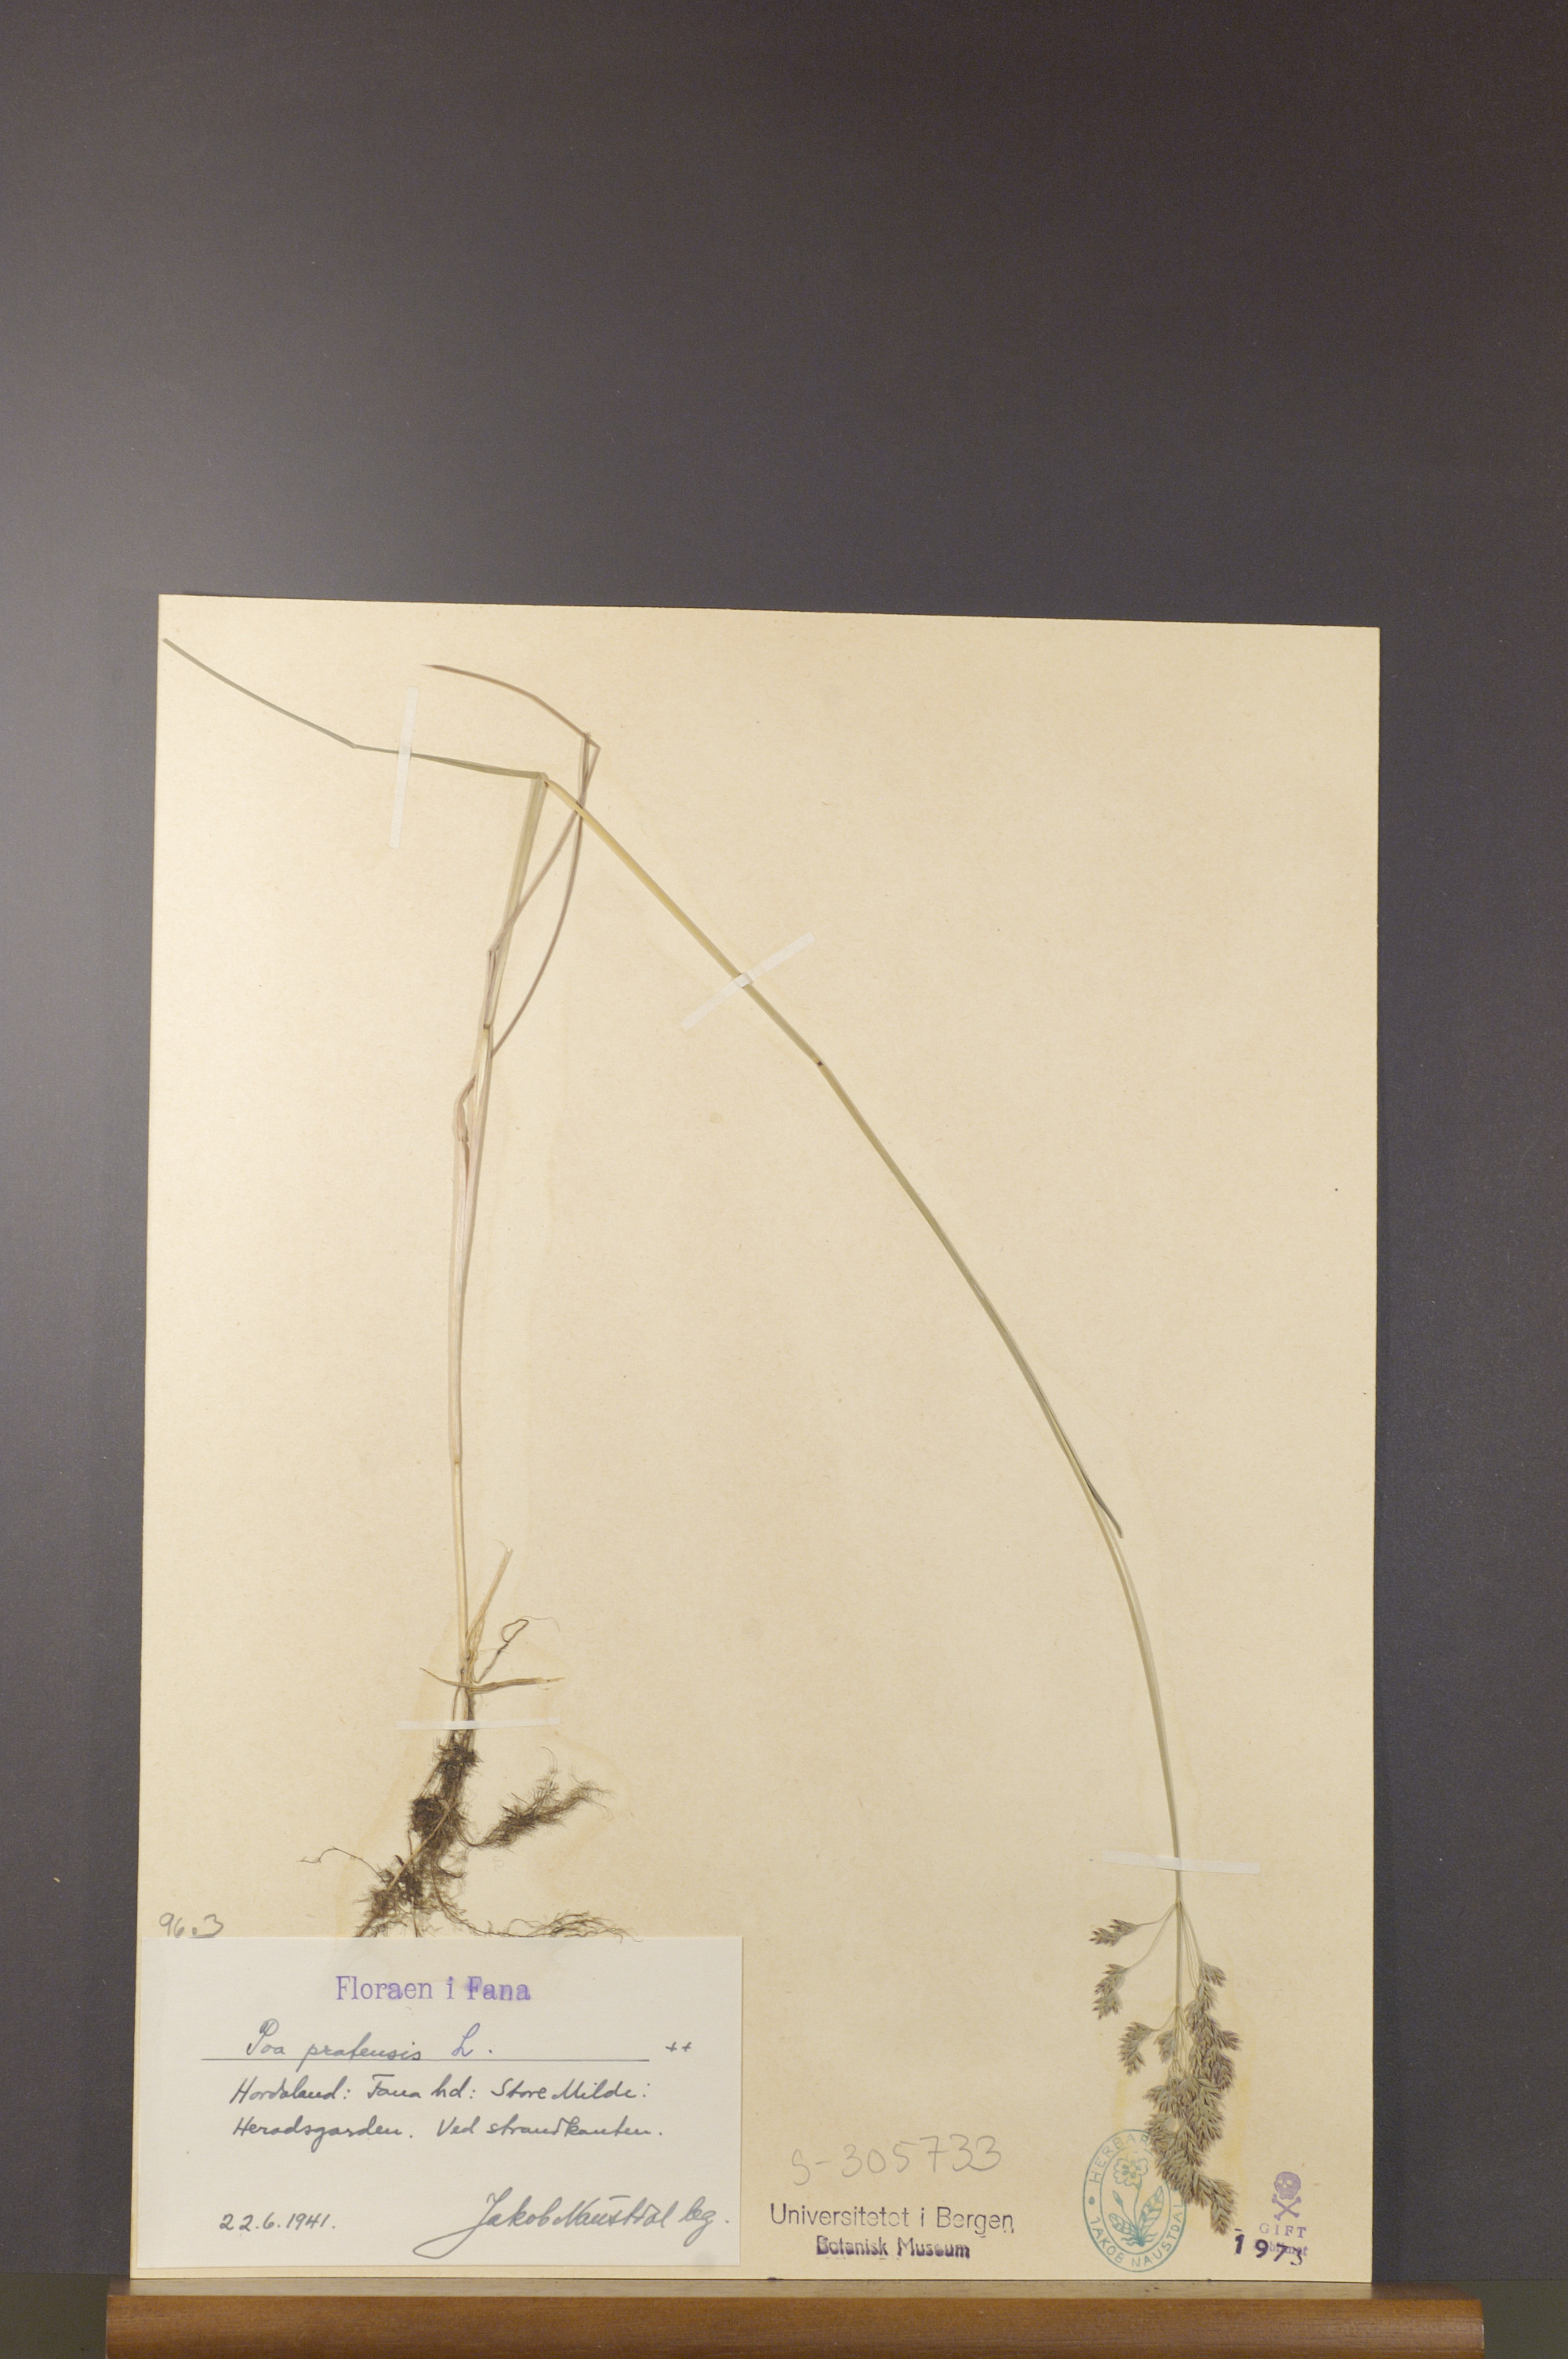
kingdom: Plantae
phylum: Tracheophyta
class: Liliopsida
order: Poales
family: Poaceae
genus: Poa
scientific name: Poa pratensis
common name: Kentucky bluegrass
